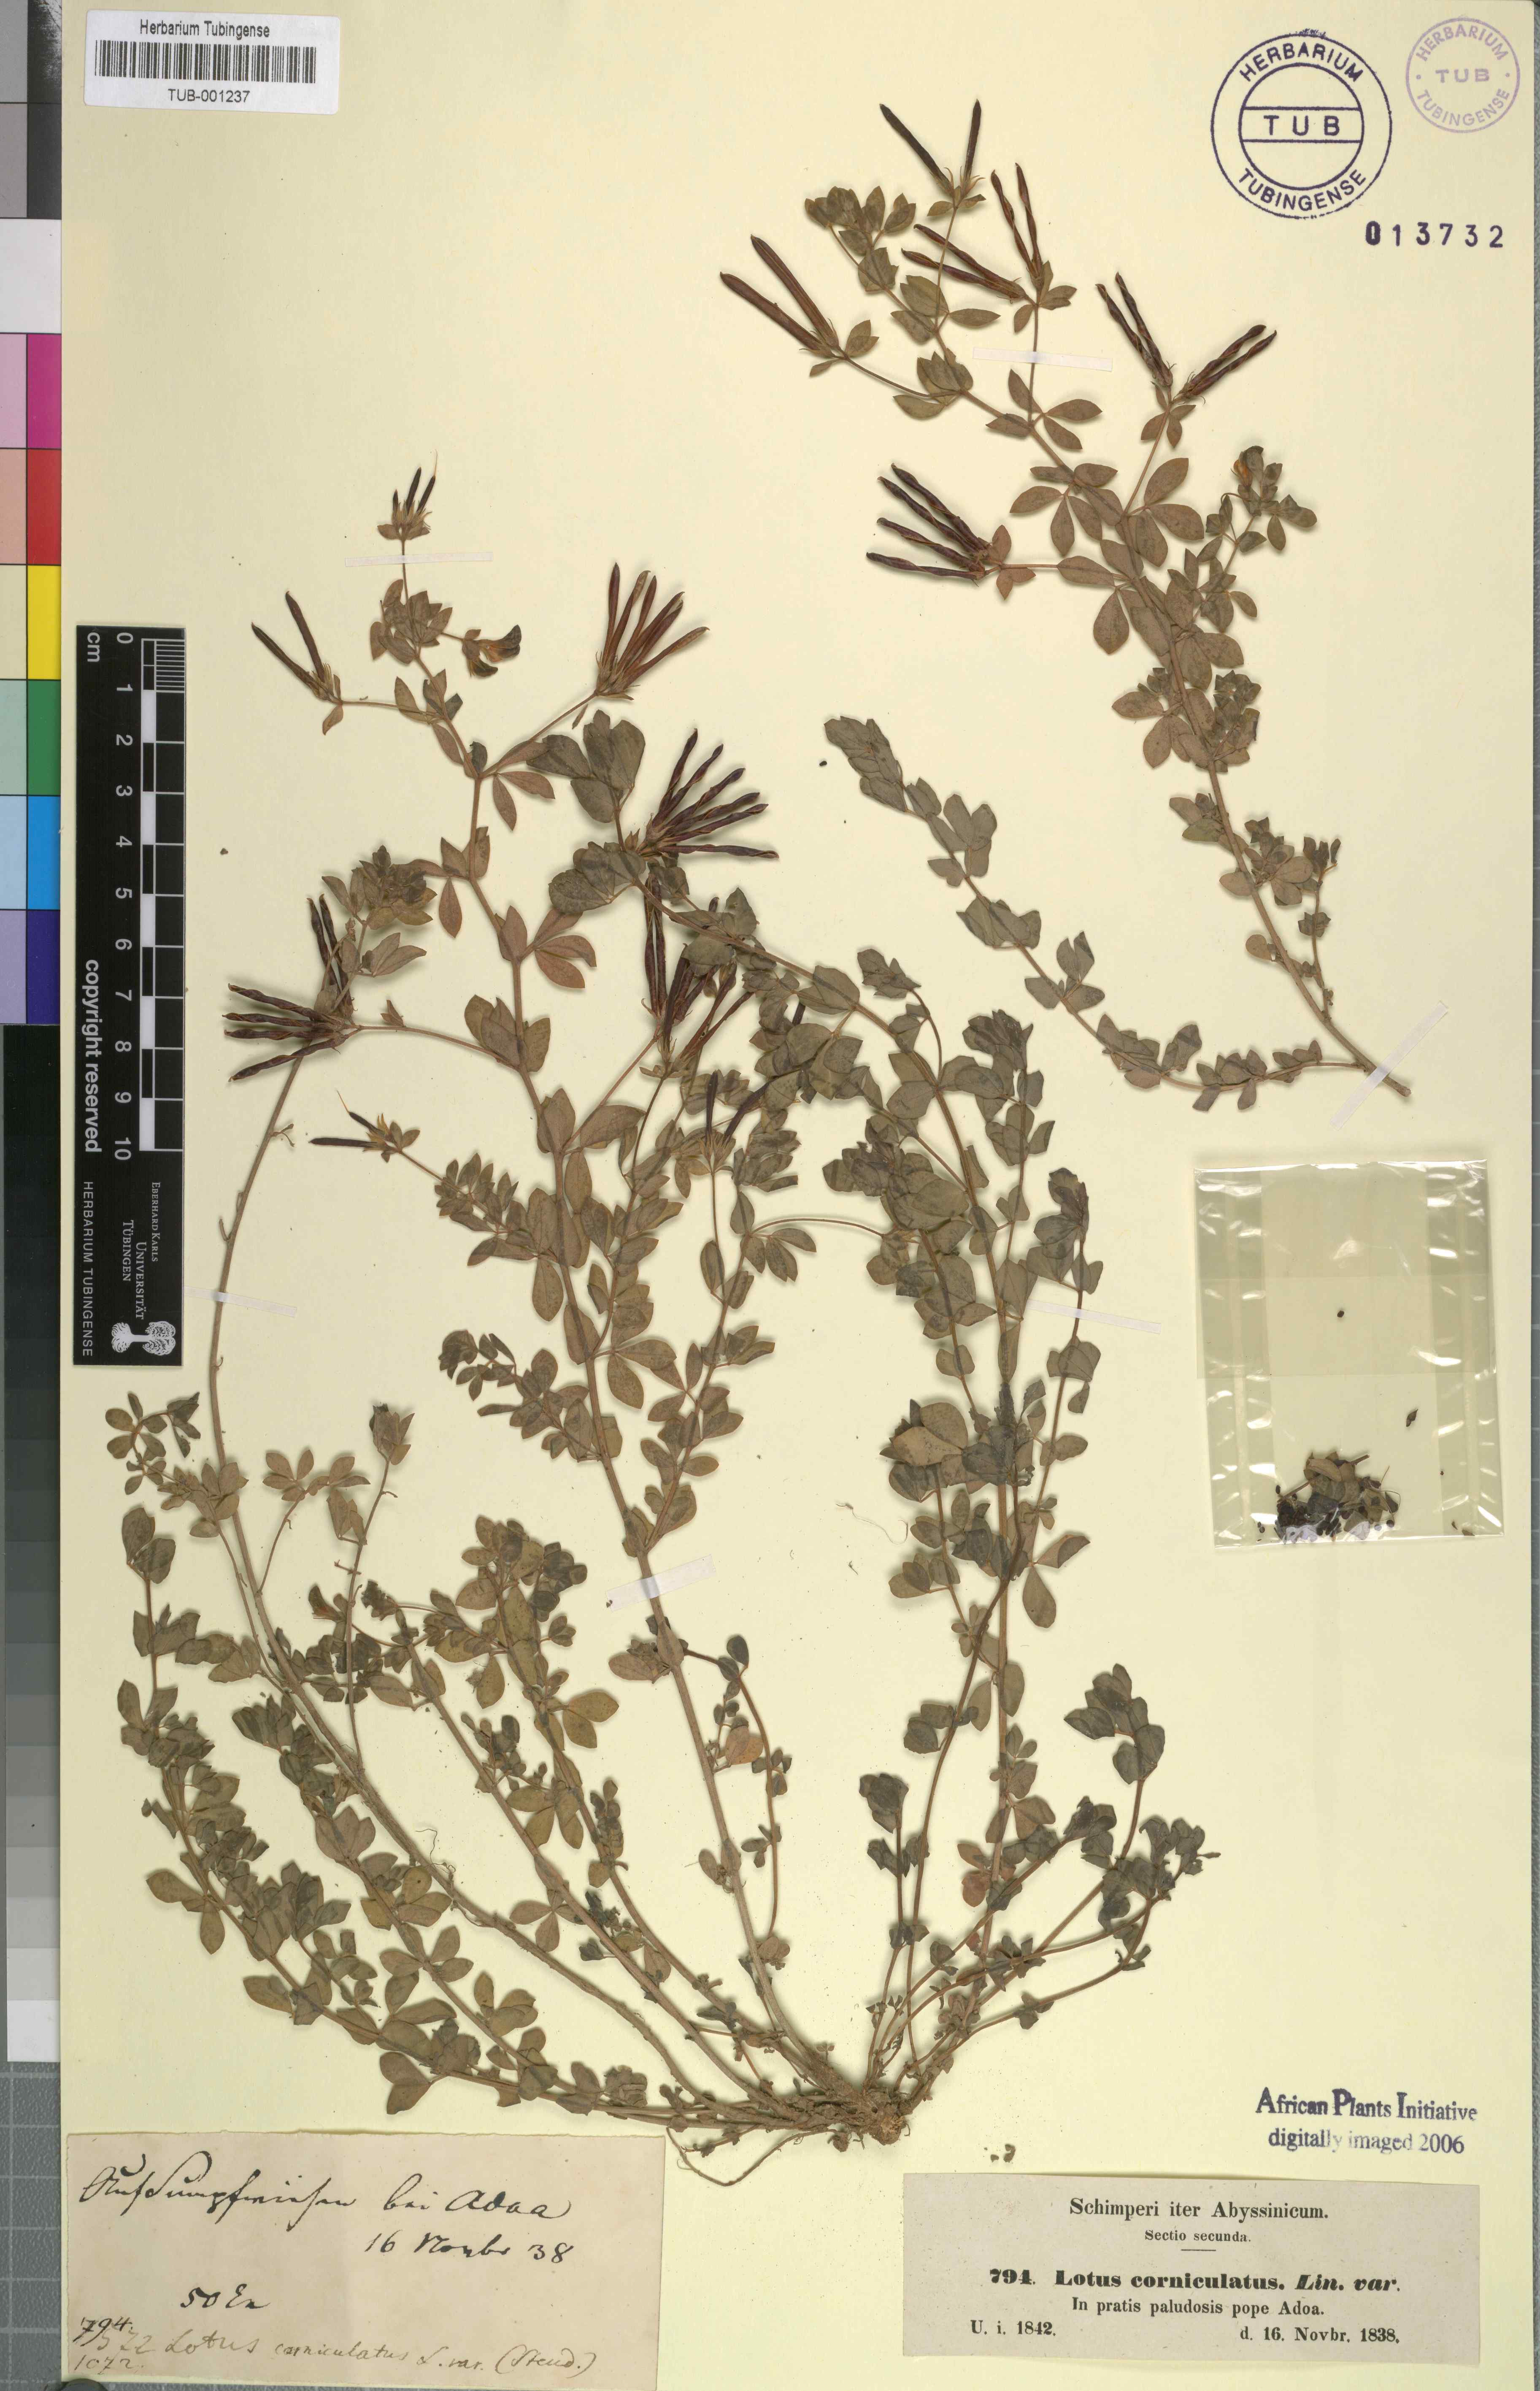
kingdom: Plantae
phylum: Tracheophyta
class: Magnoliopsida
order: Fabales
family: Fabaceae
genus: Lotus
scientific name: Lotus corniculatus
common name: Common bird's-foot-trefoil
